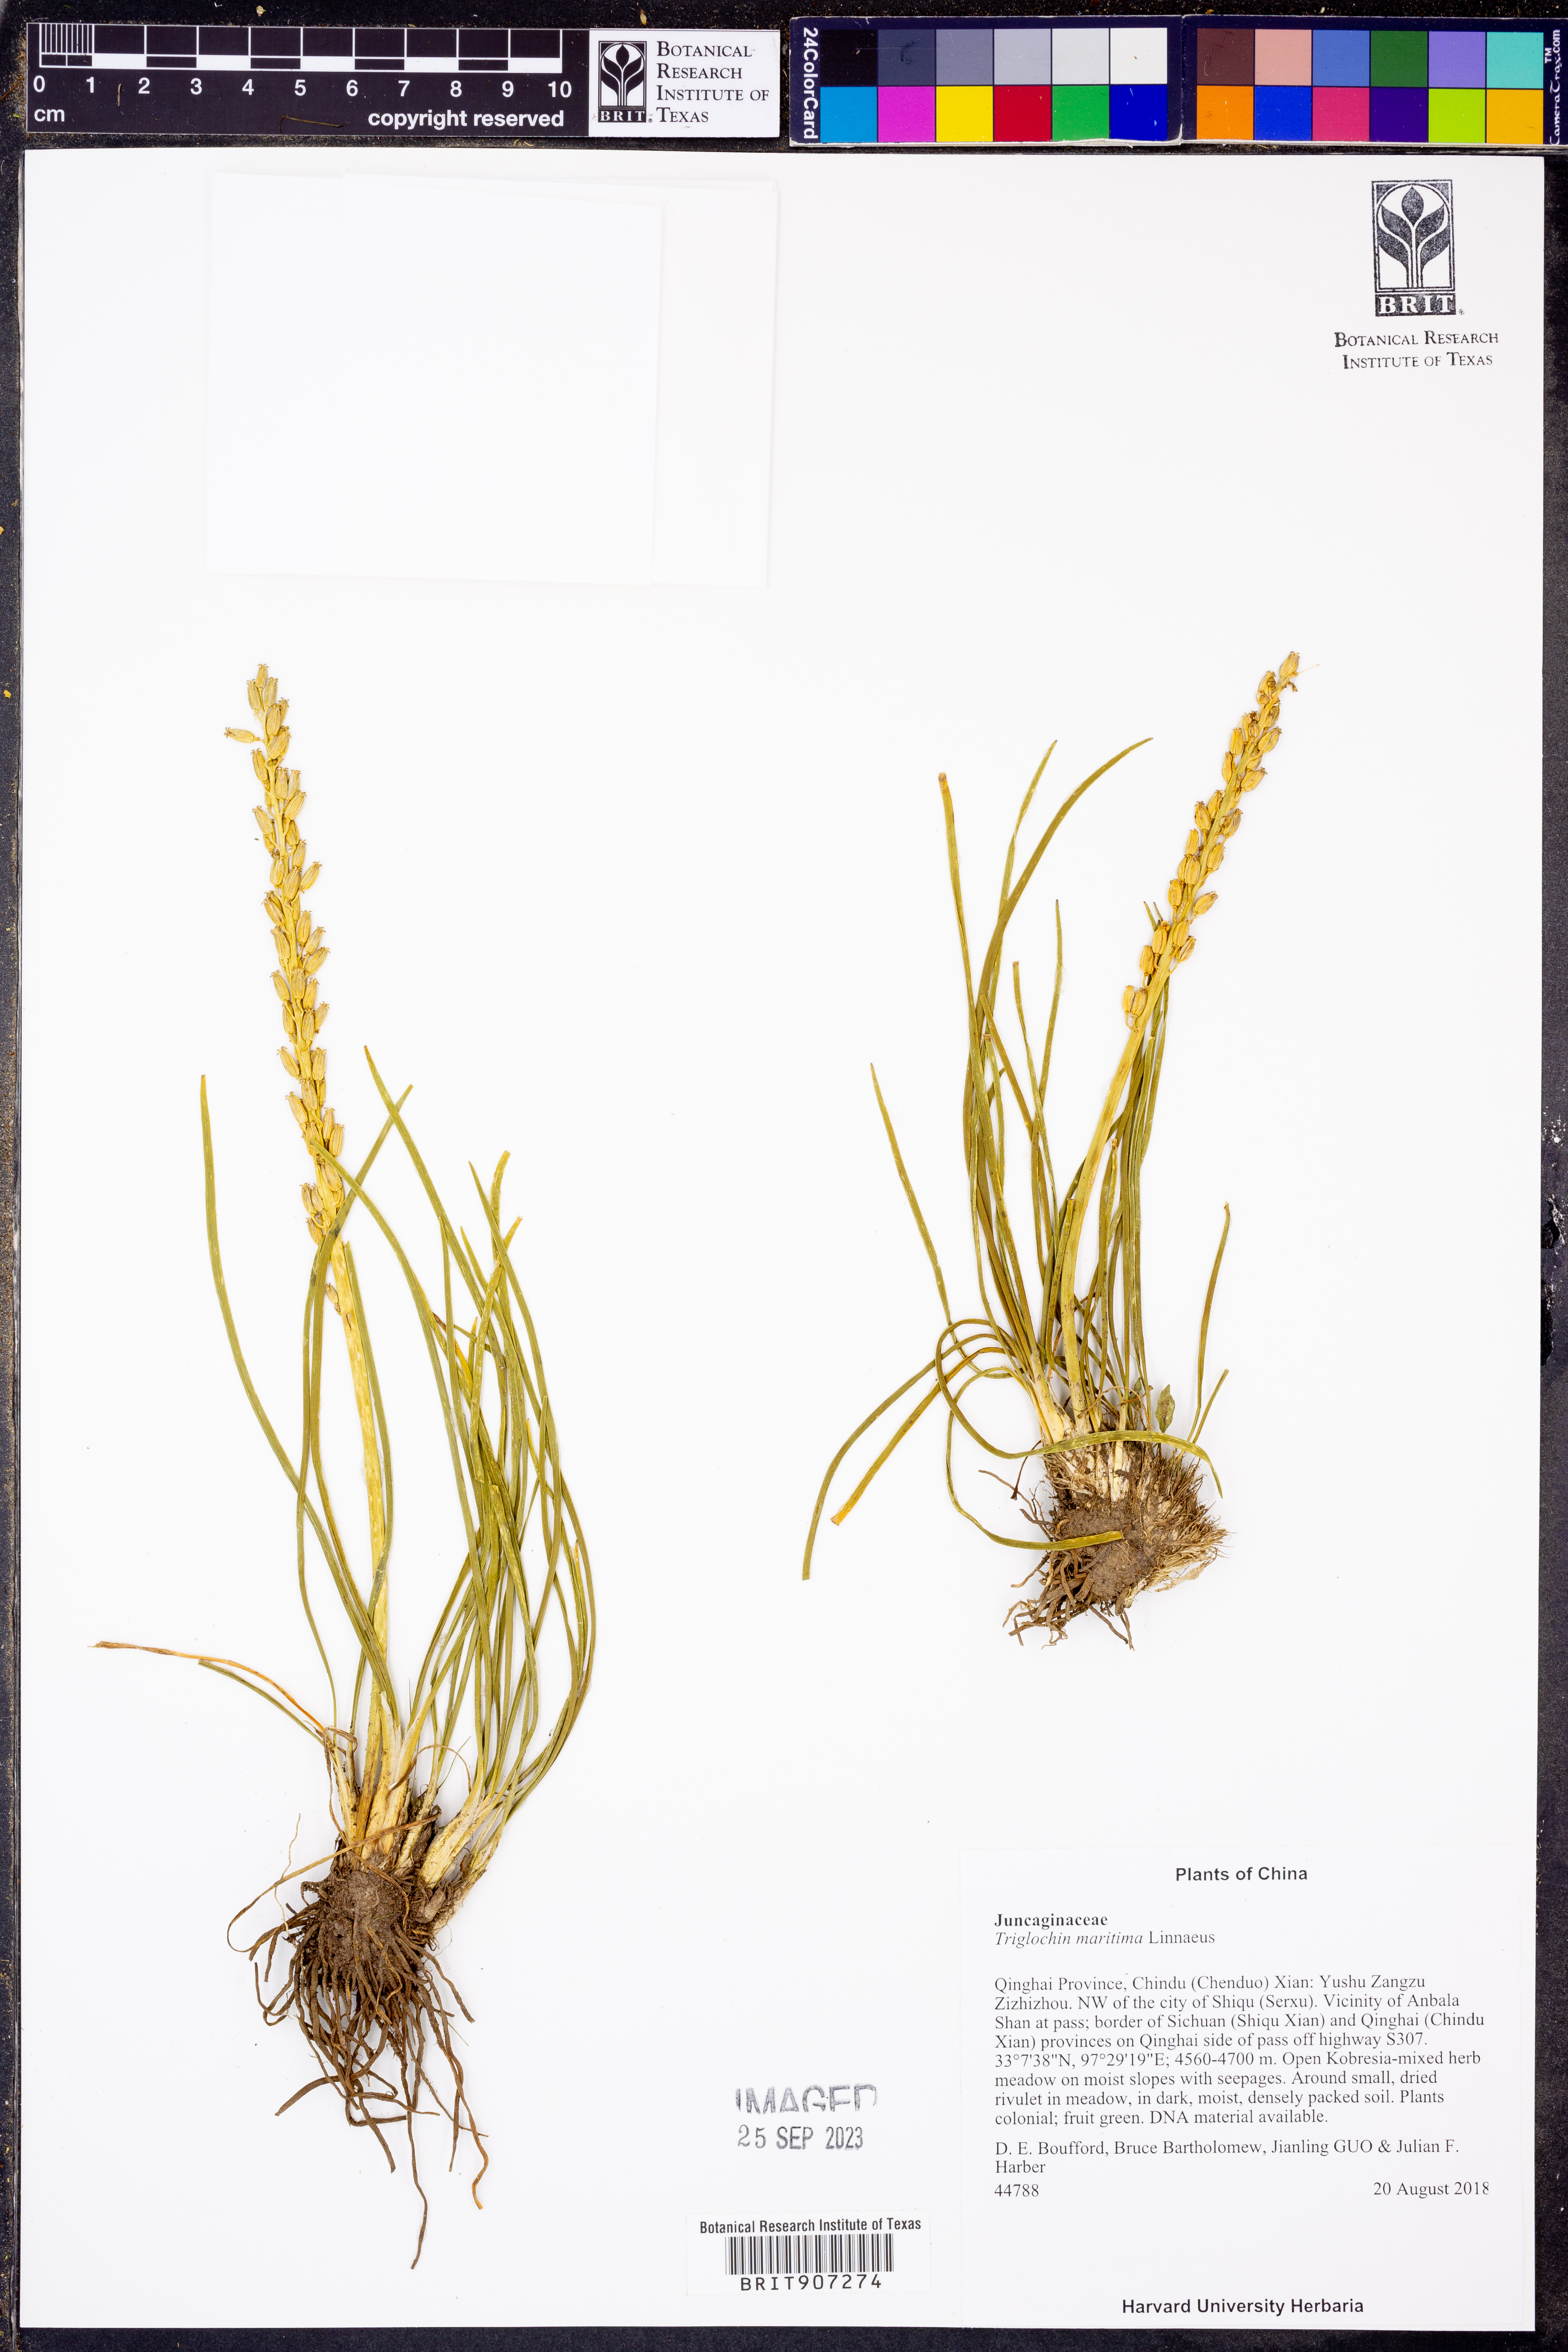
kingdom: Plantae
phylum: Tracheophyta
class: Liliopsida
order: Alismatales
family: Juncaginaceae
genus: Triglochin
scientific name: Triglochin maritima
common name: Sea arrowgrass
